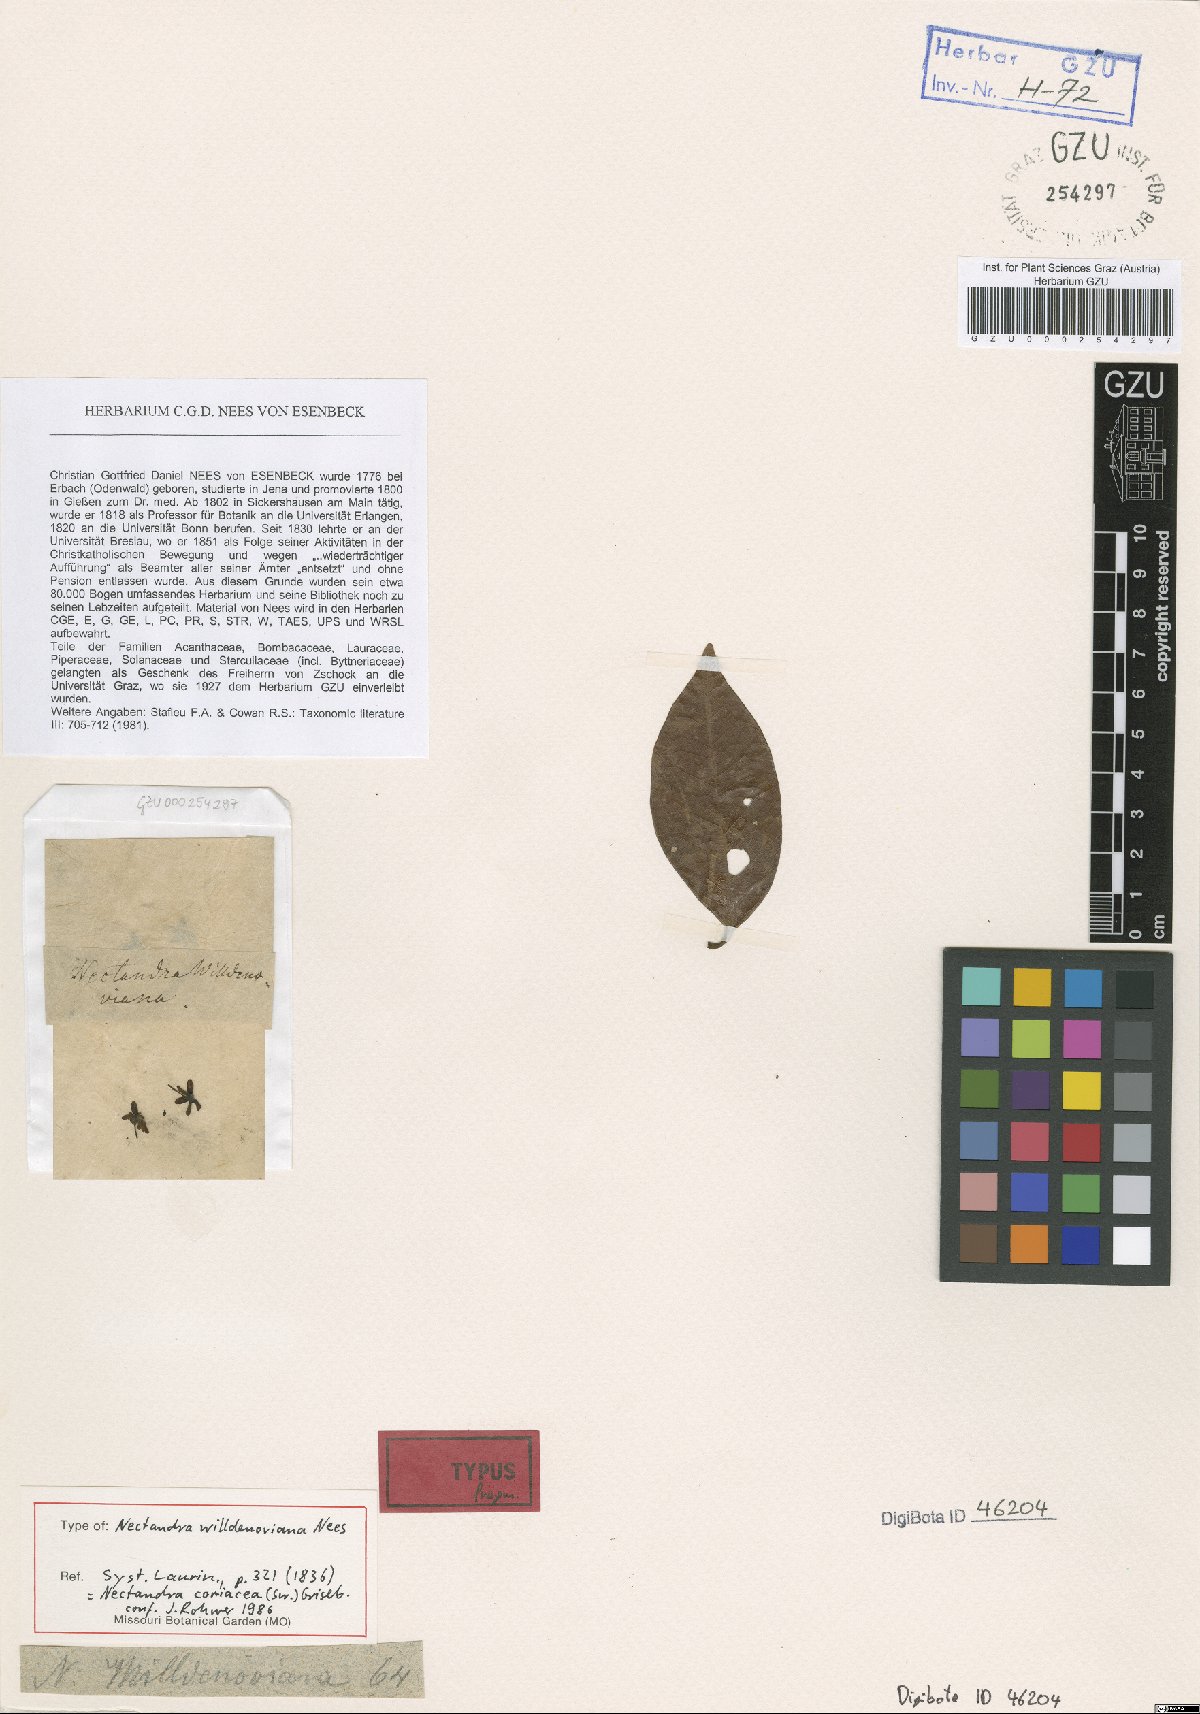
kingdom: Plantae
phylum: Tracheophyta
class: Magnoliopsida
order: Laurales
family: Lauraceae
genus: Damburneya
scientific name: Damburneya coriacea
